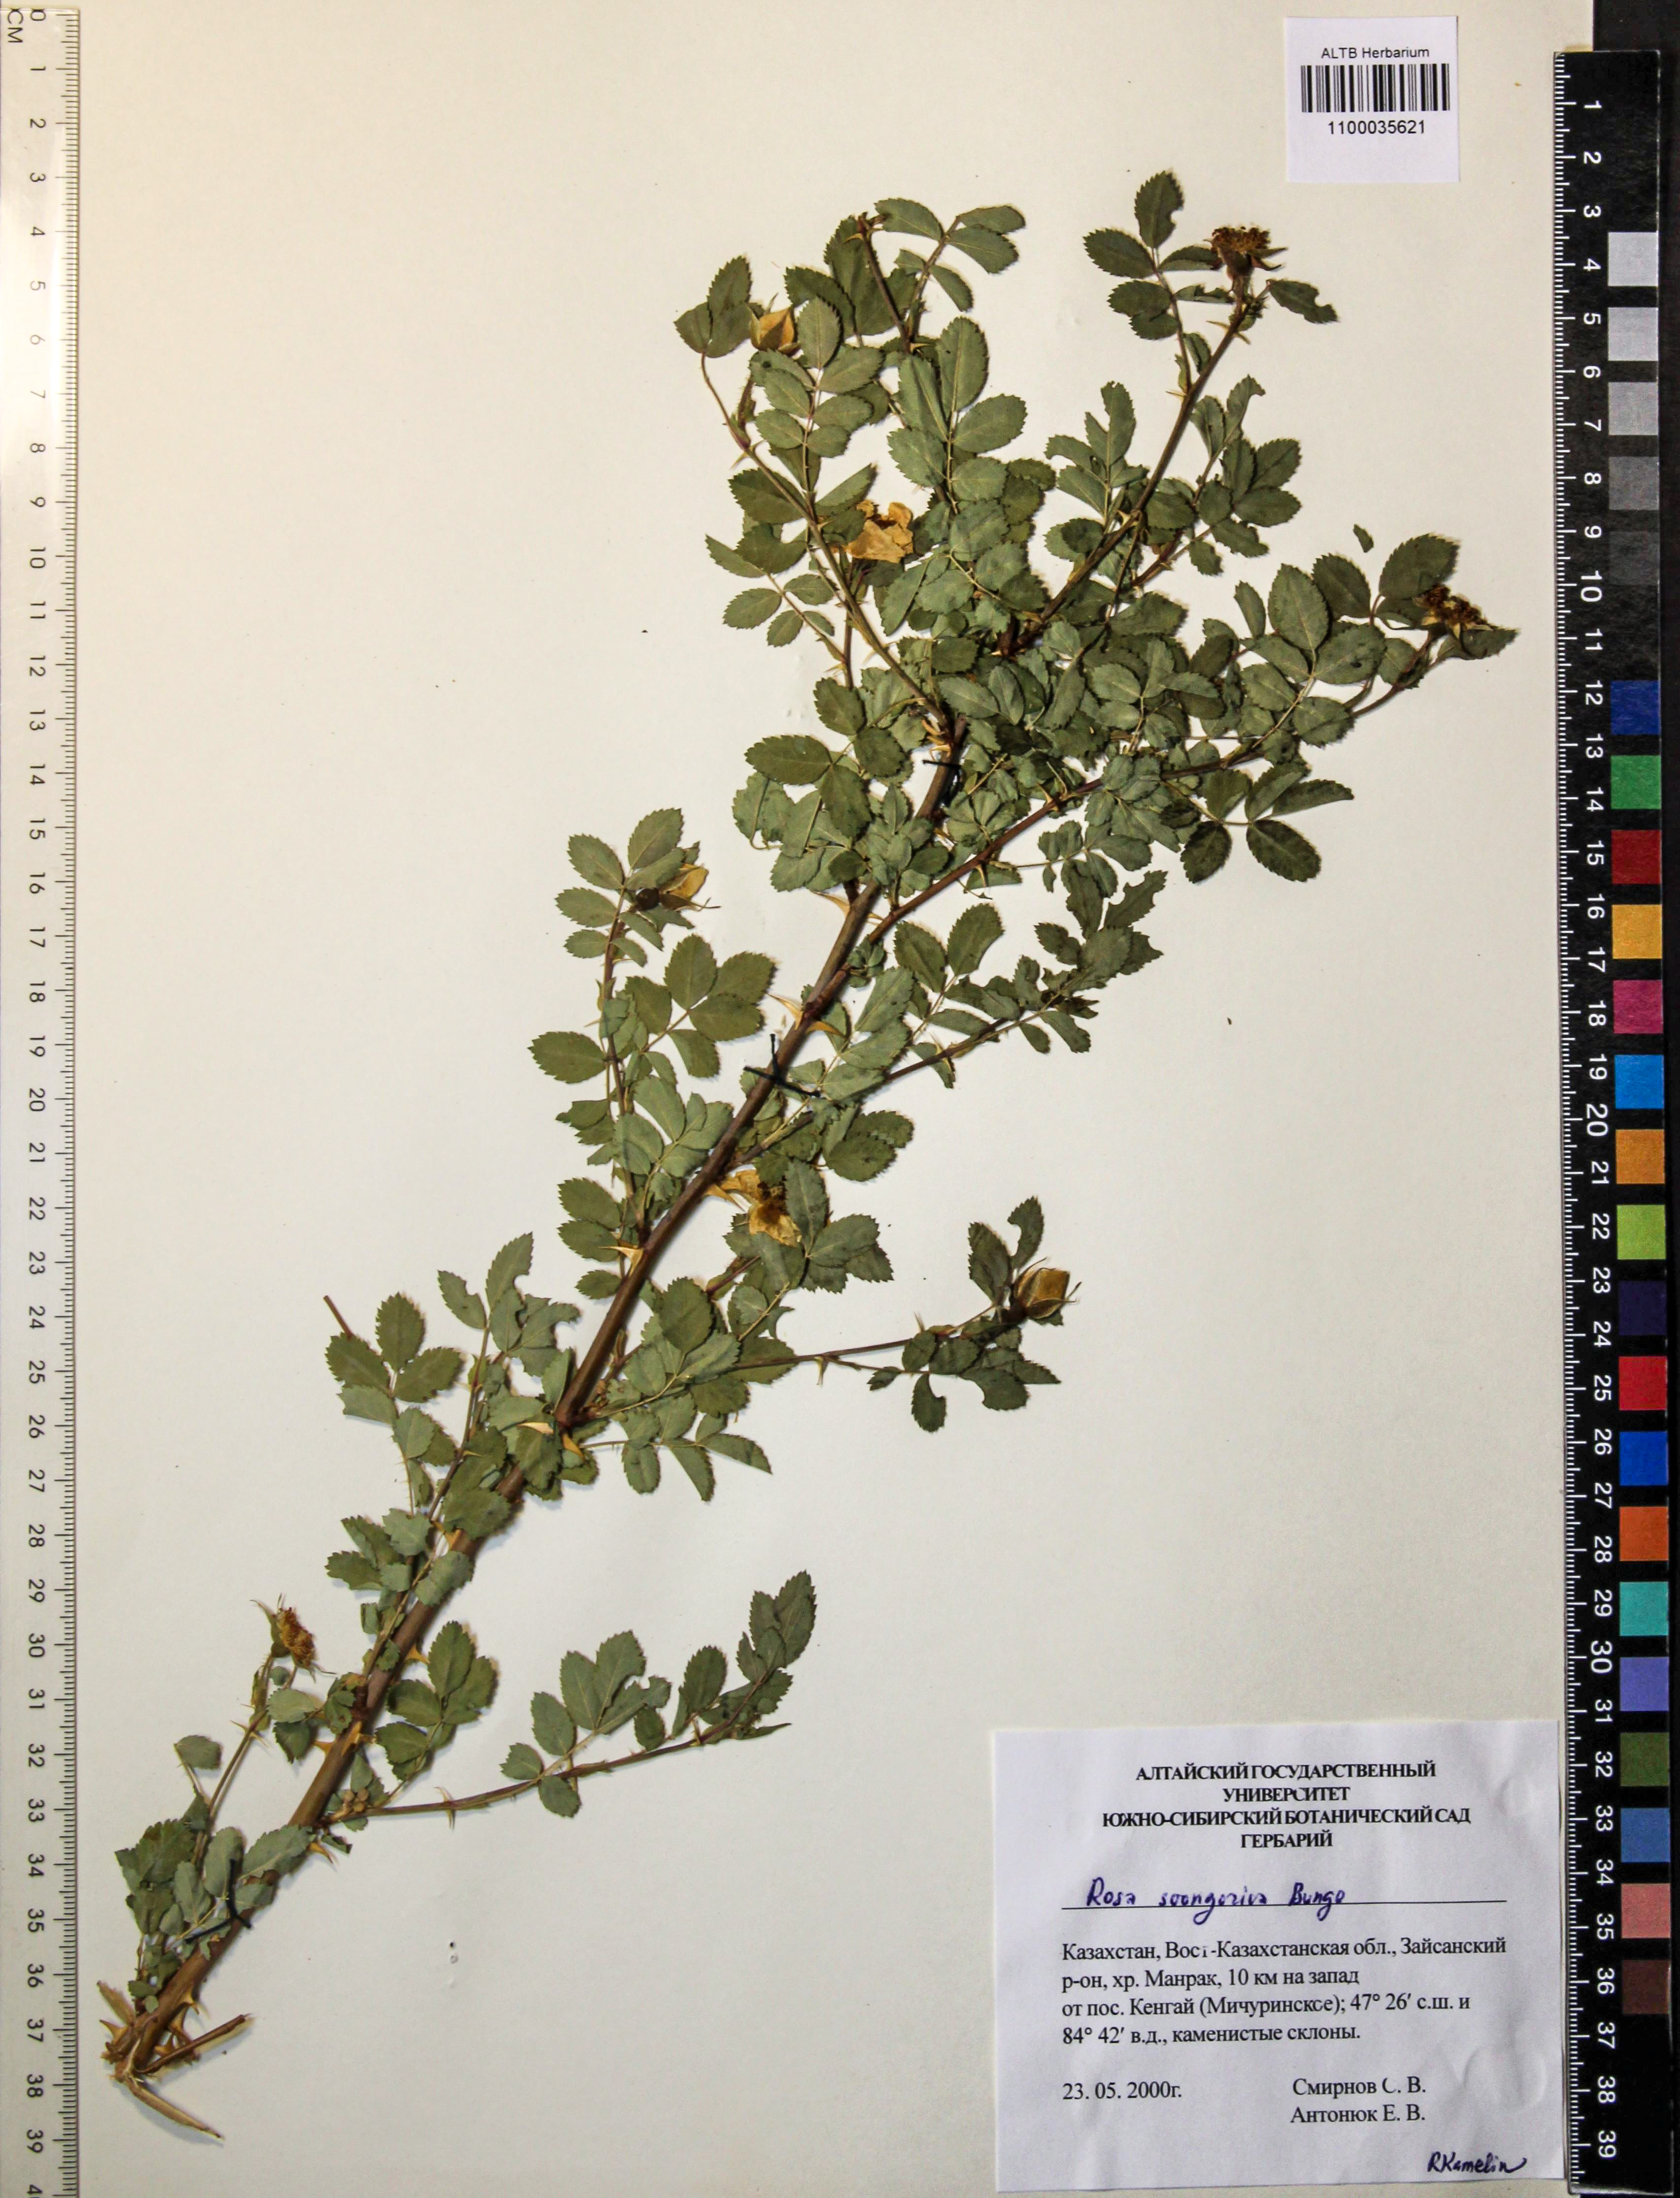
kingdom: Plantae
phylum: Tracheophyta
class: Magnoliopsida
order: Rosales
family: Rosaceae
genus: Rosa
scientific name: Rosa laxa
